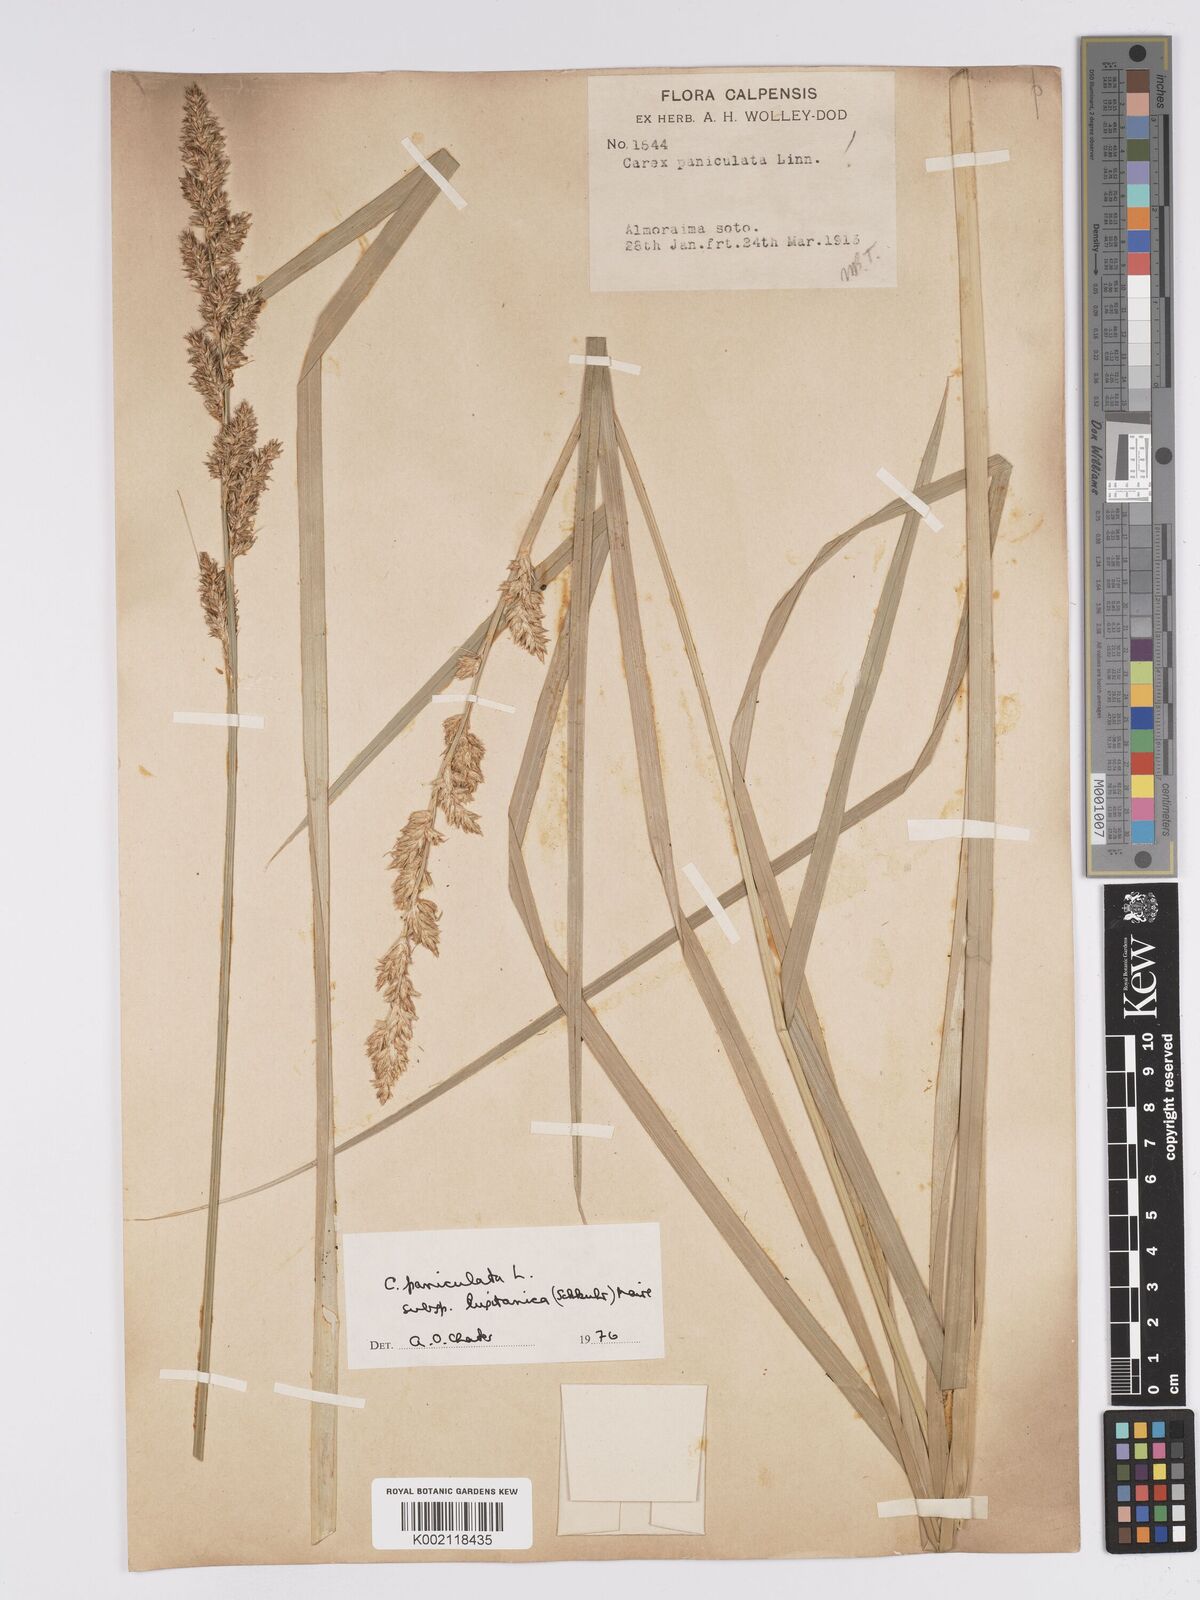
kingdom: Plantae
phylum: Tracheophyta
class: Liliopsida
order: Poales
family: Cyperaceae
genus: Carex
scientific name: Carex paniculata
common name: Greater tussock-sedge
